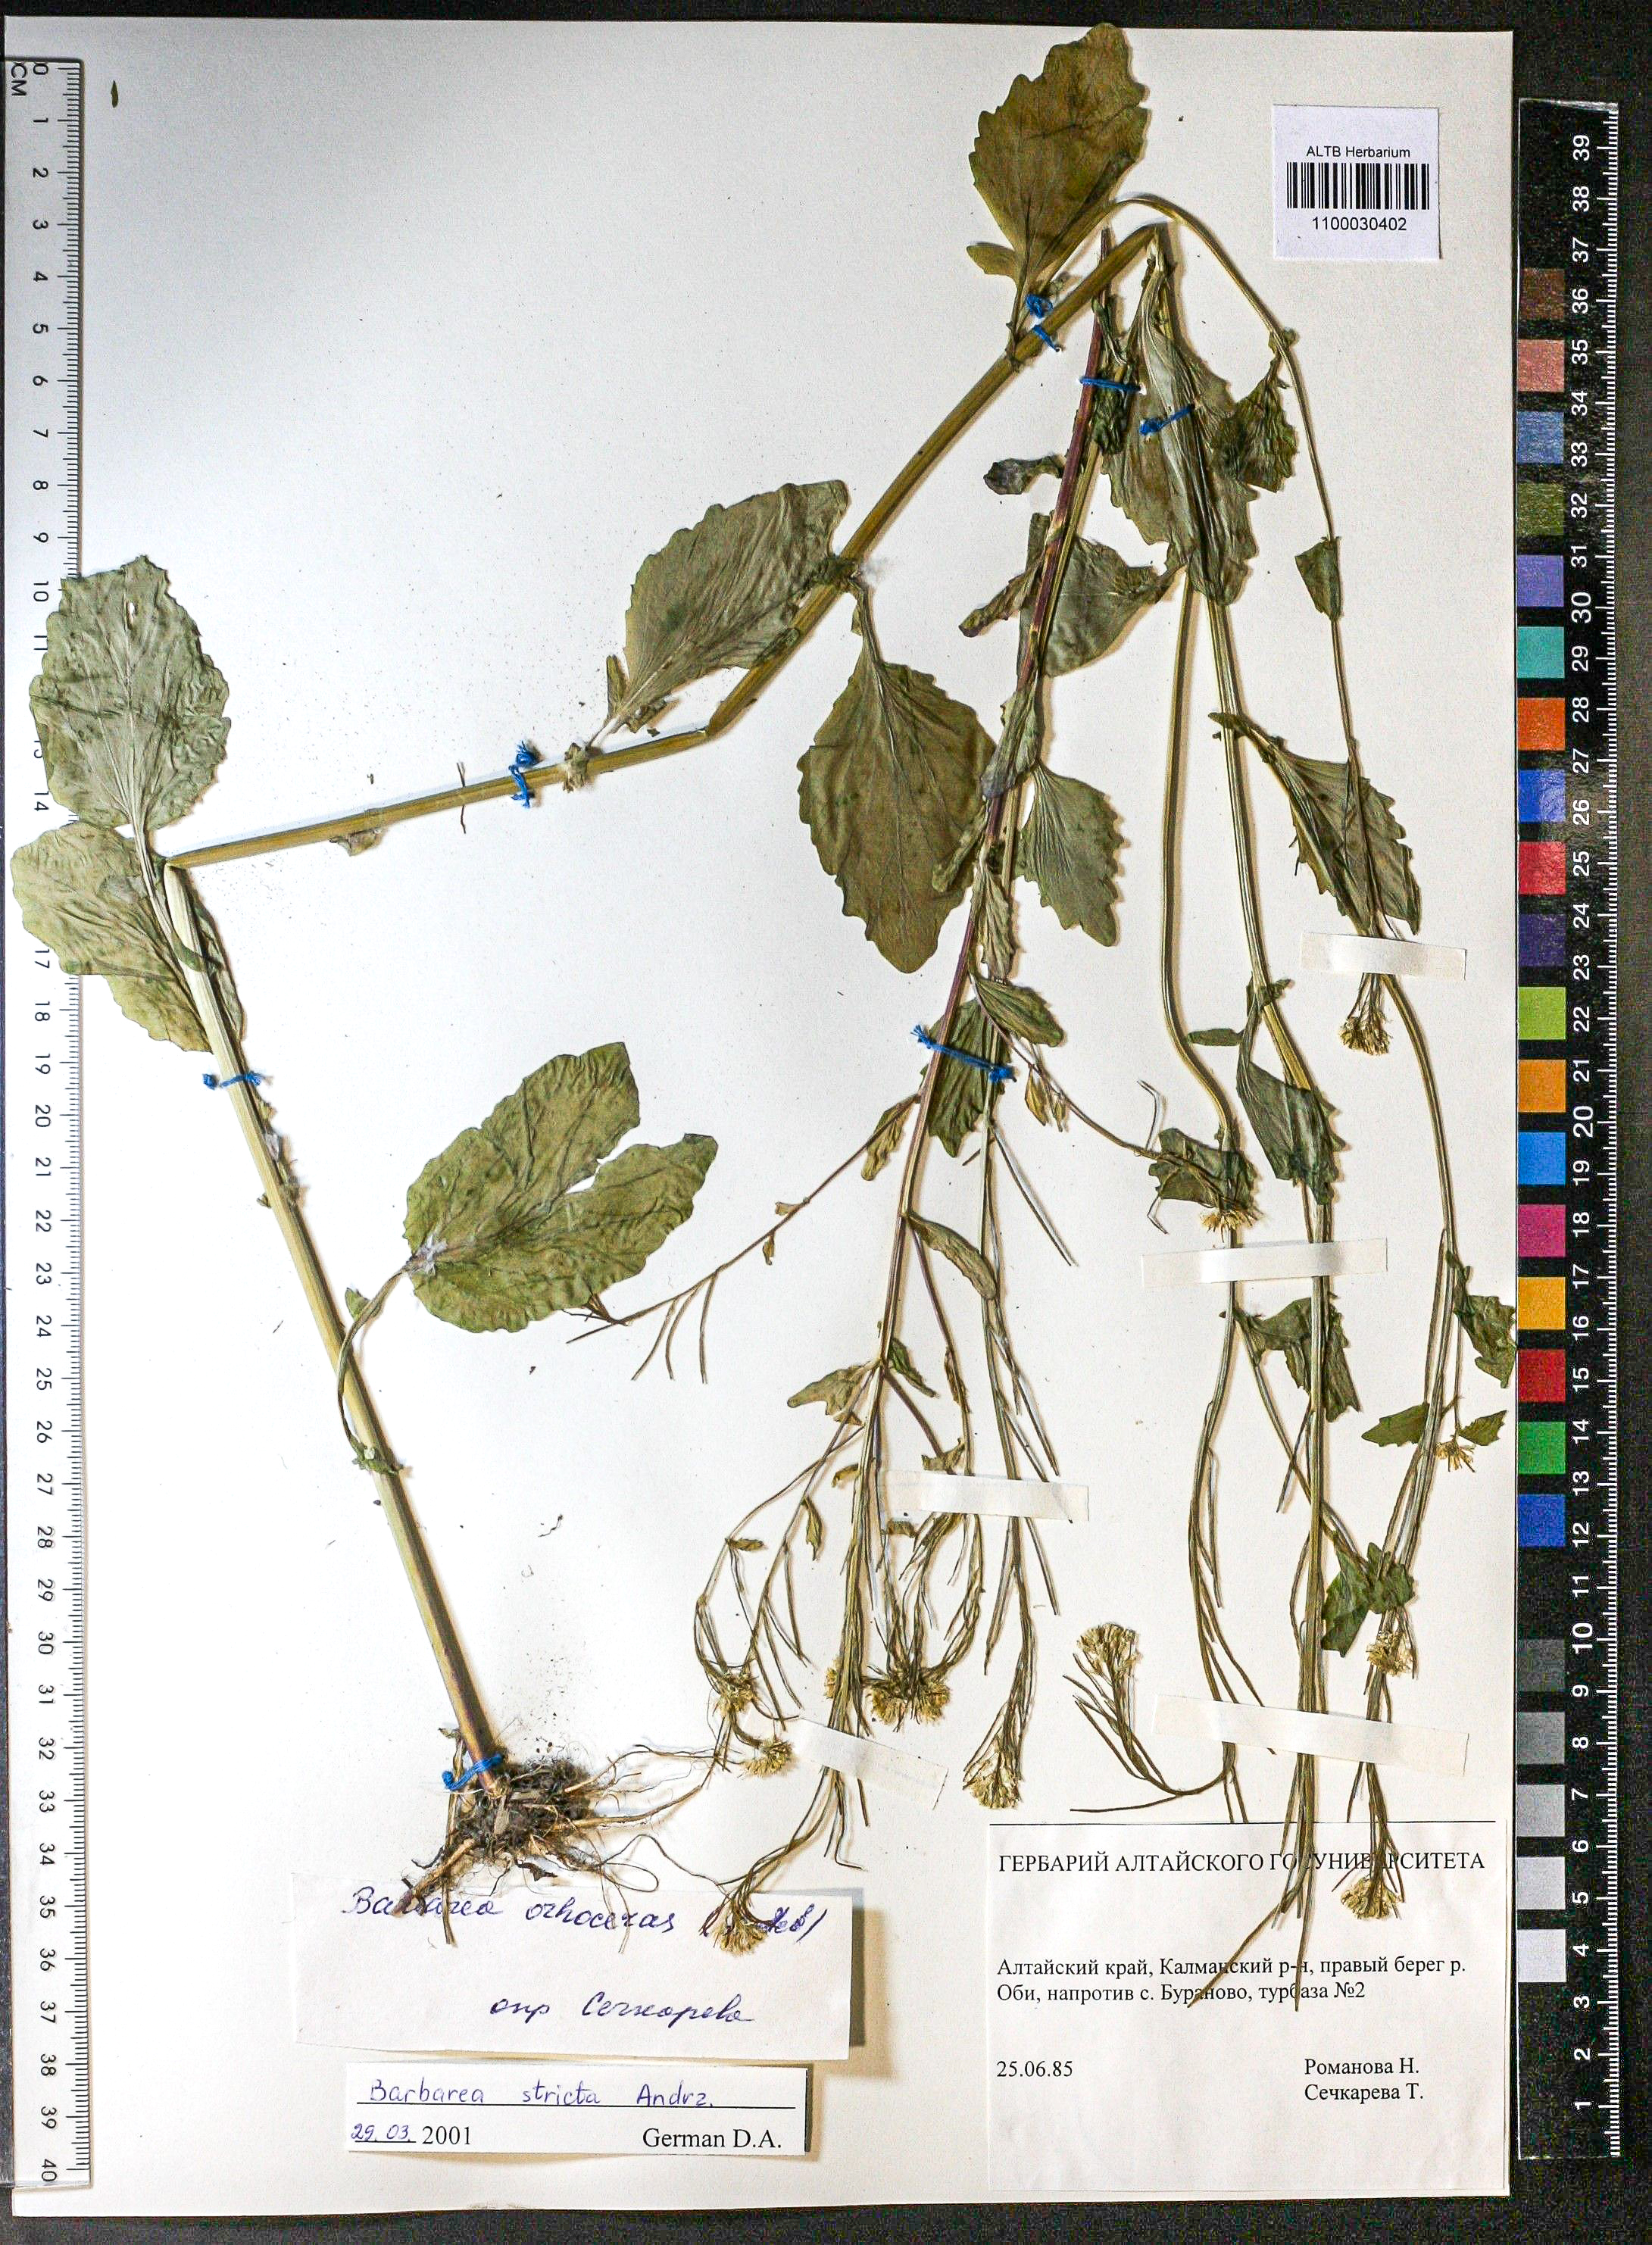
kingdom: Plantae
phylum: Tracheophyta
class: Magnoliopsida
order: Brassicales
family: Brassicaceae
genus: Barbarea
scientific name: Barbarea vulgaris
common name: Cressy-greens
